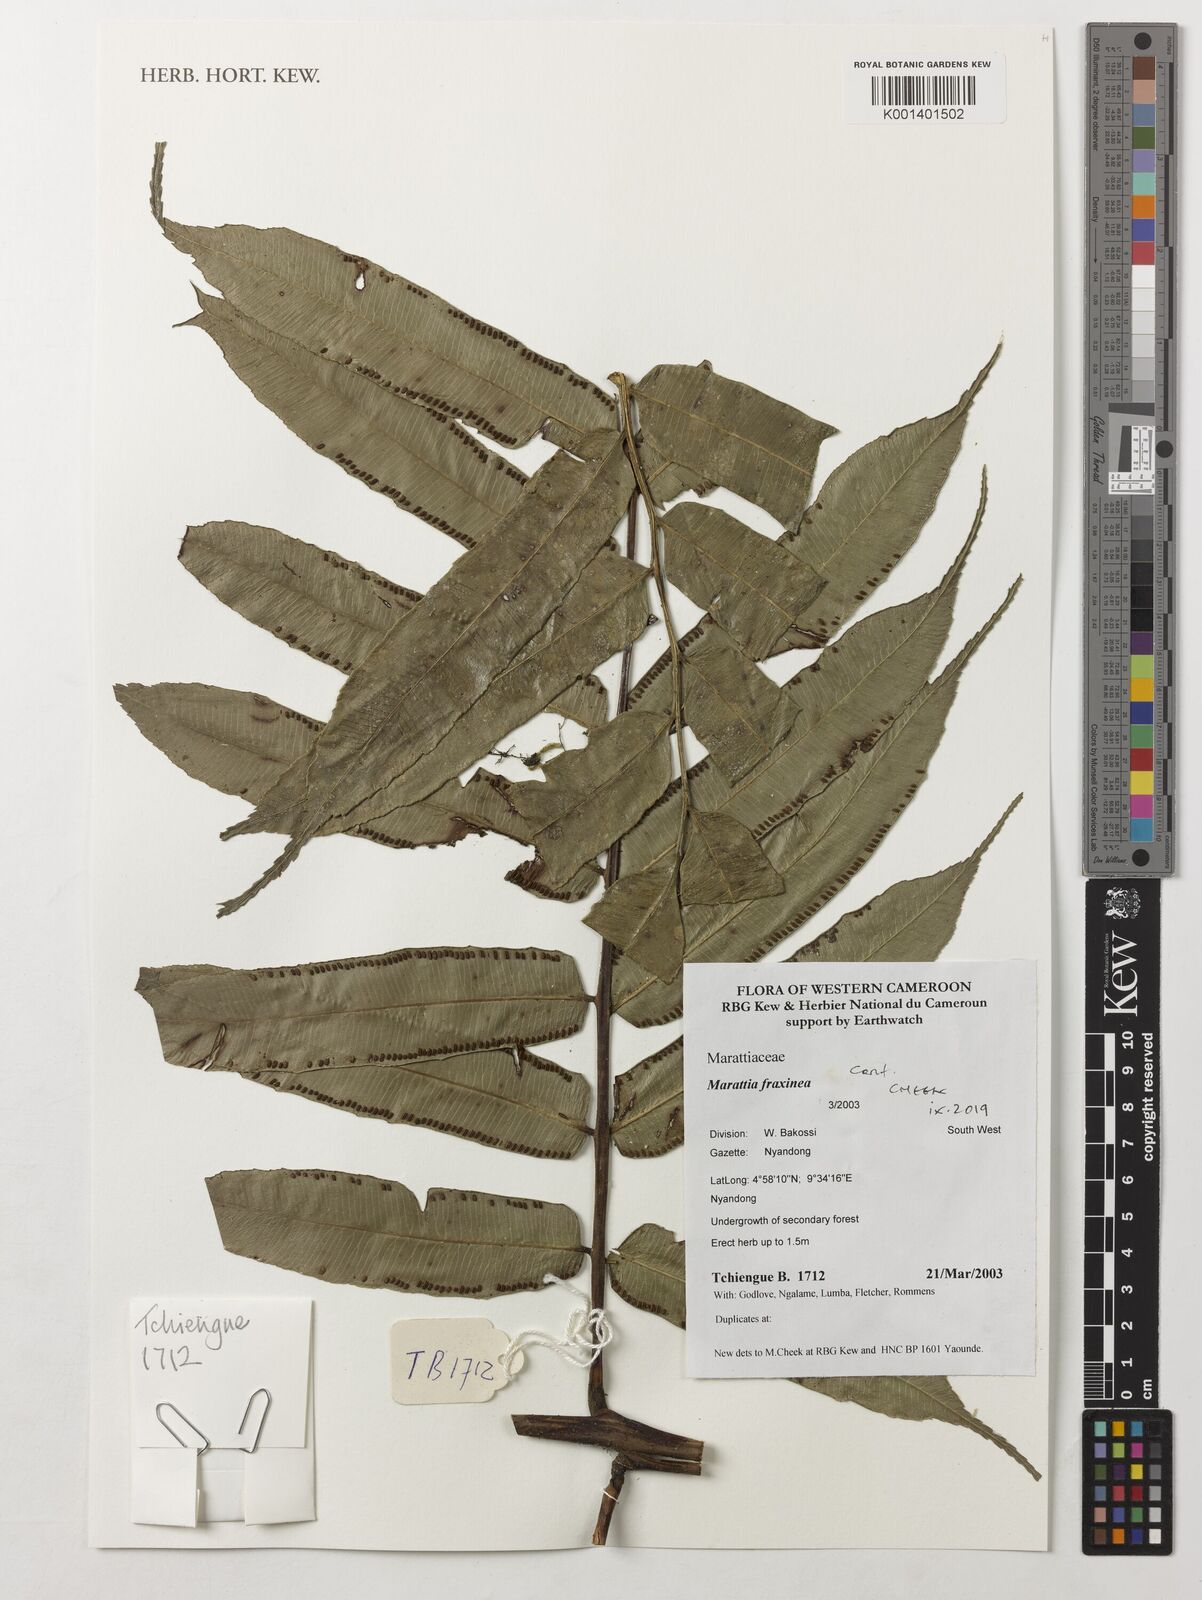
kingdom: Plantae
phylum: Tracheophyta
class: Polypodiopsida
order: Marattiales
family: Marattiaceae
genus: Eupodium
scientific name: Eupodium cicutifolium
